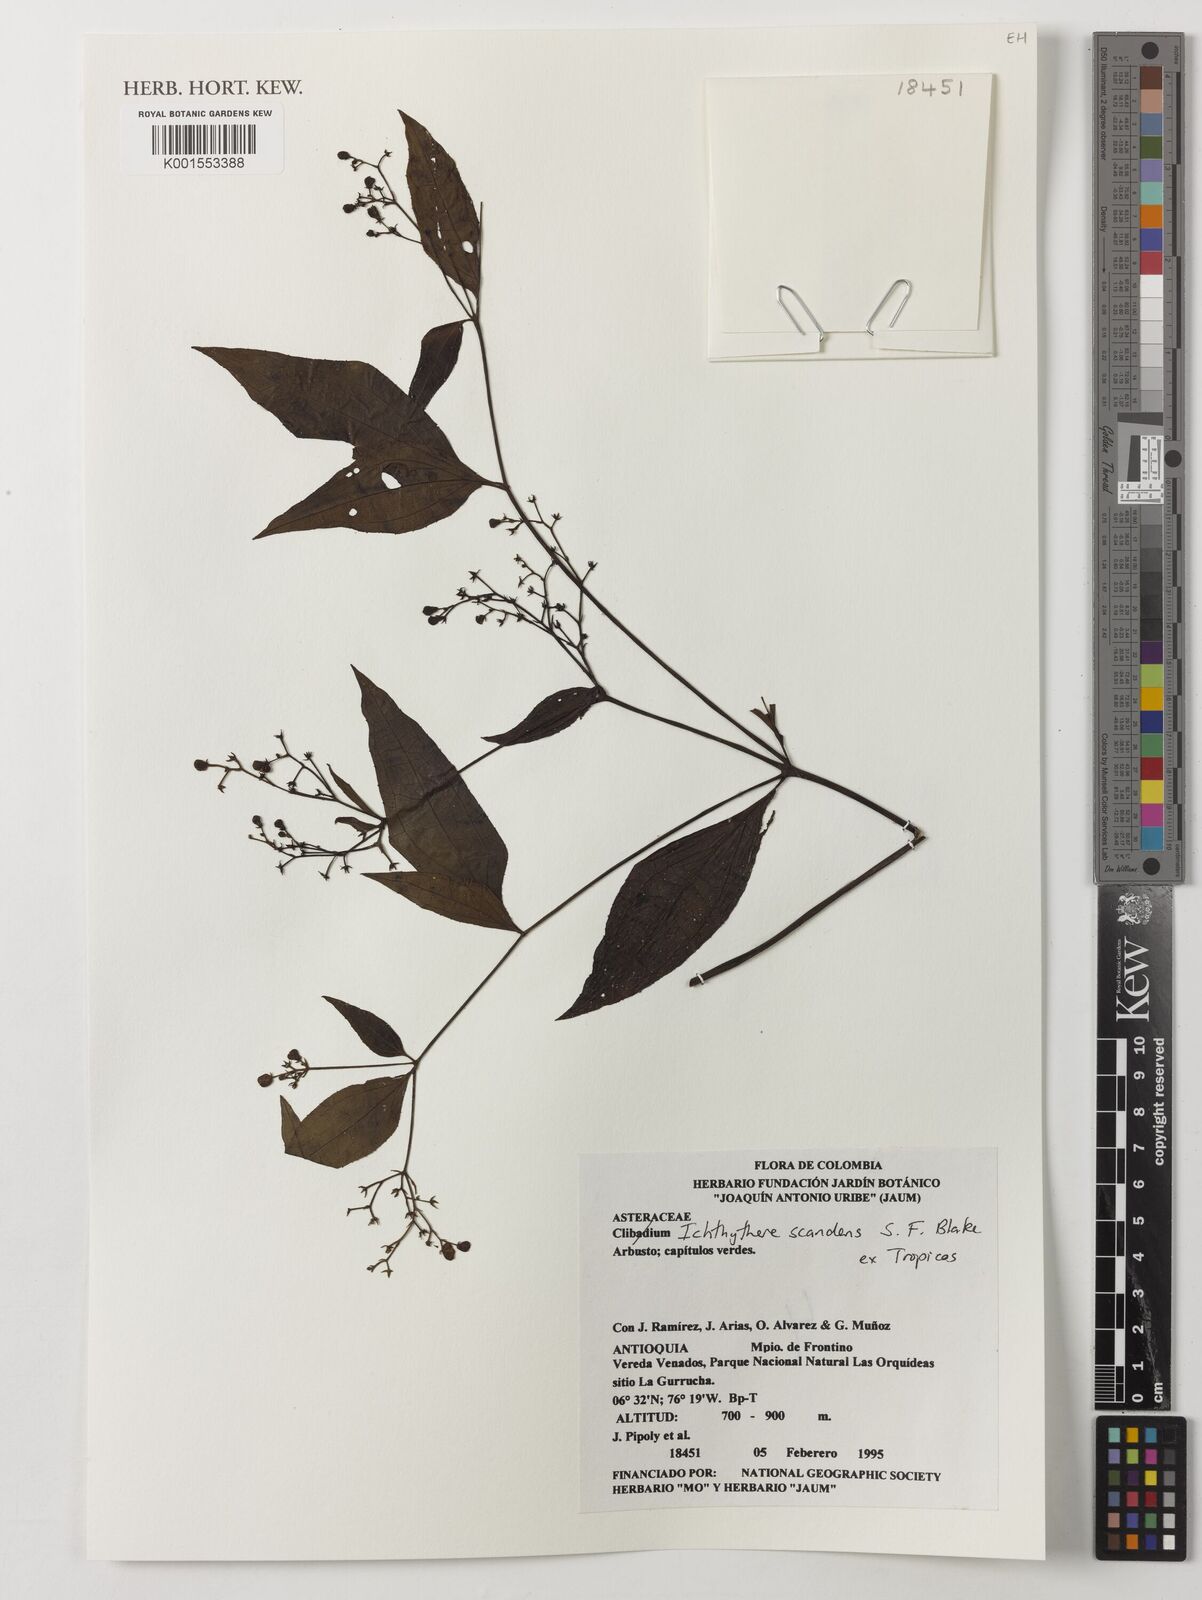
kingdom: Plantae
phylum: Tracheophyta
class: Magnoliopsida
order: Asterales
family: Asteraceae
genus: Ichthyothere
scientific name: Ichthyothere scandens
